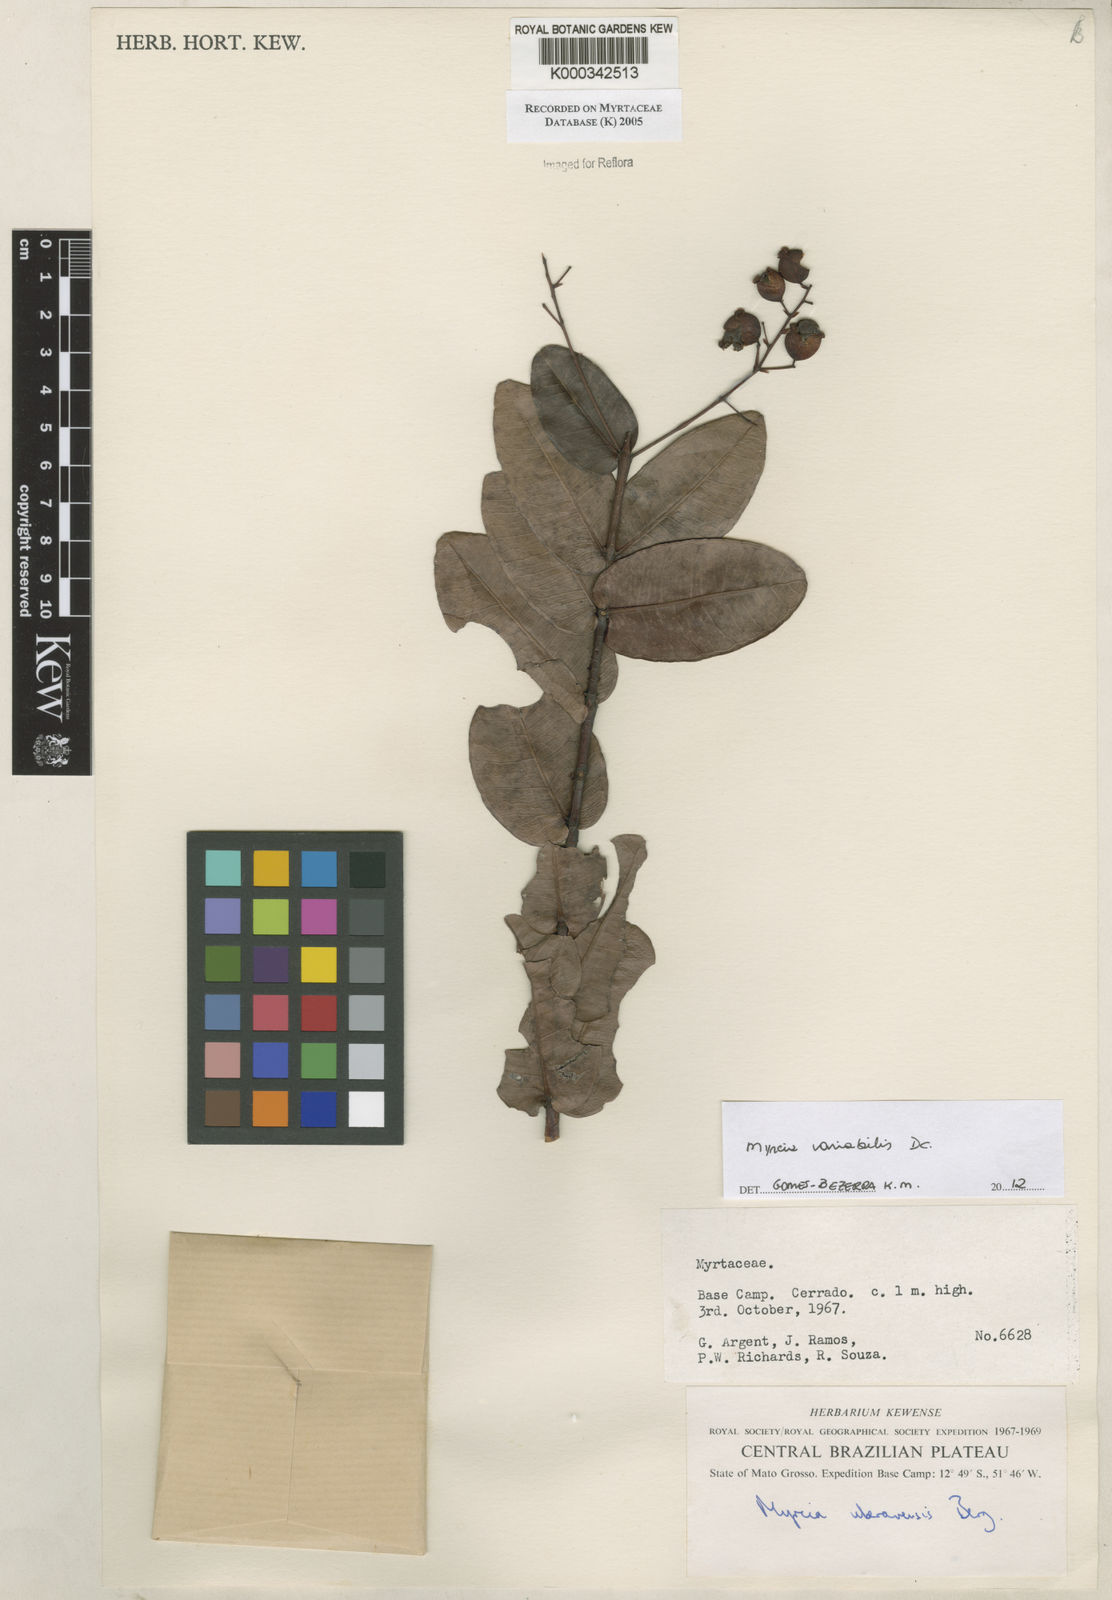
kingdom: Plantae
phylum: Tracheophyta
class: Magnoliopsida
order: Myrtales
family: Myrtaceae
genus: Myrcia
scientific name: Myrcia uberavensis
